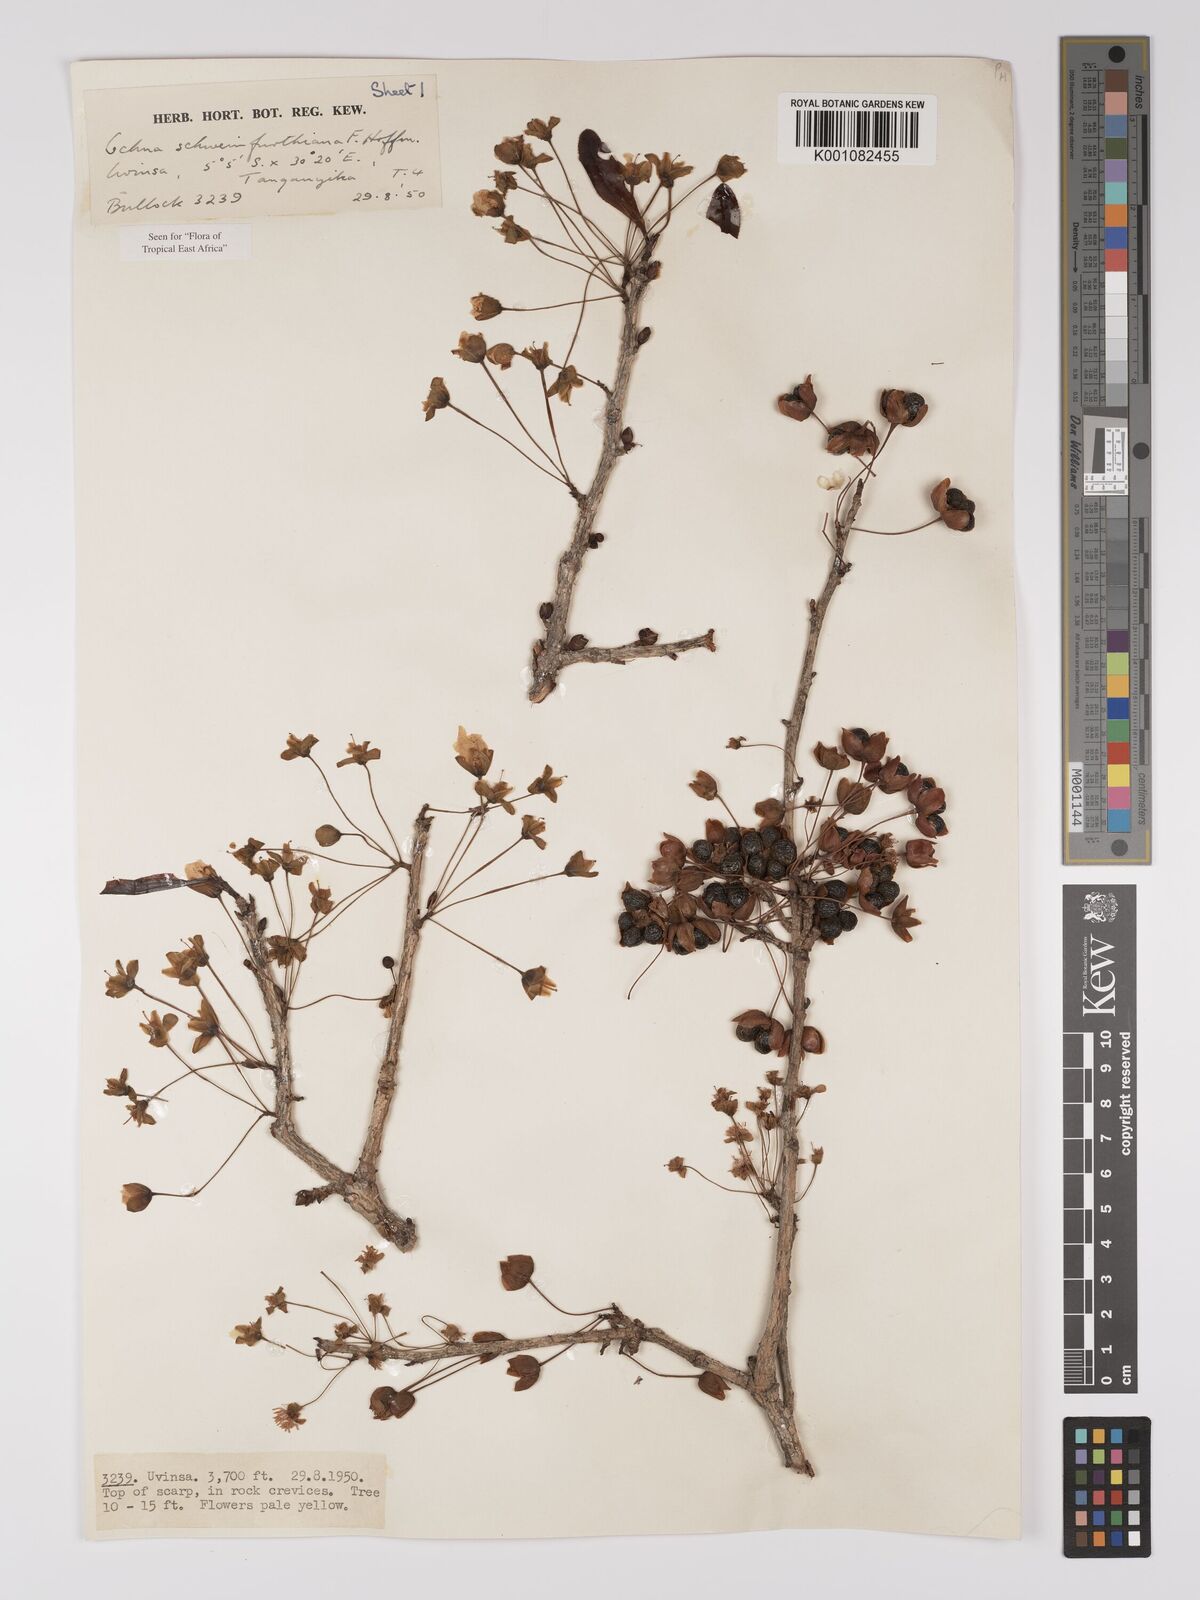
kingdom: Plantae
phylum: Tracheophyta
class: Magnoliopsida
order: Malpighiales
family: Ochnaceae
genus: Ochna
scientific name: Ochna schweinfurthiana
